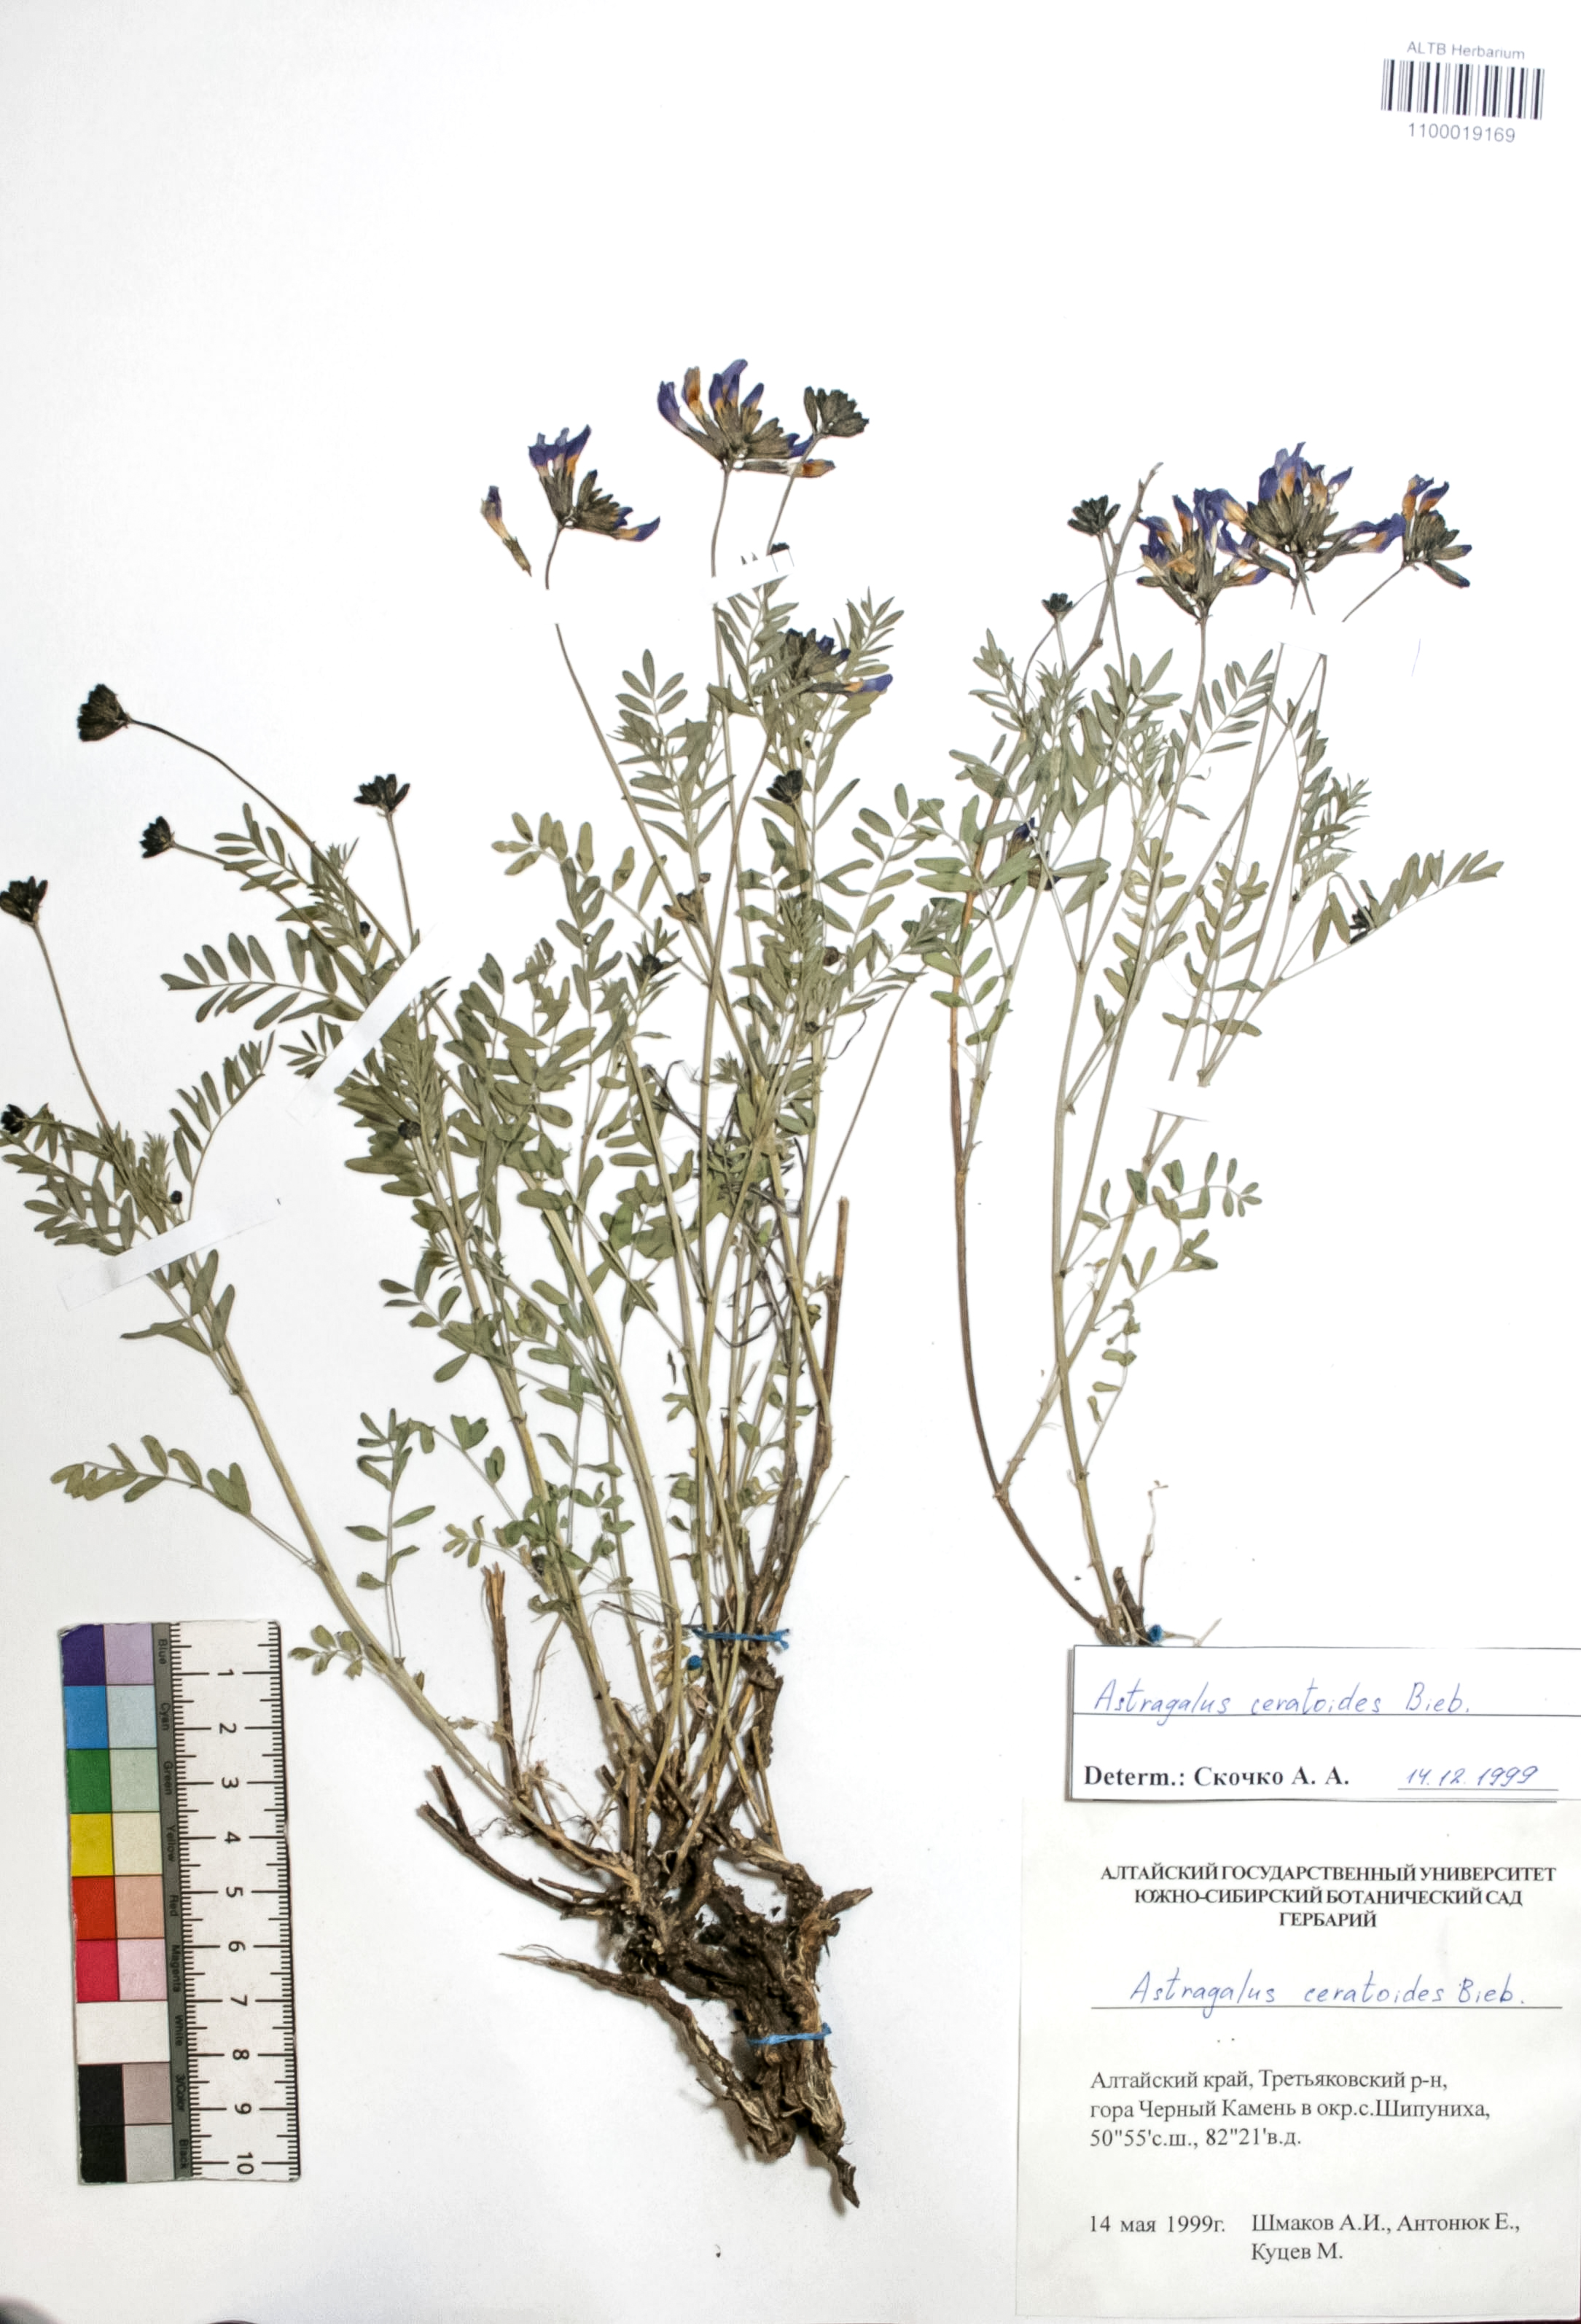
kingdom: Plantae
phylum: Tracheophyta
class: Magnoliopsida
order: Fabales
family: Fabaceae
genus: Astragalus
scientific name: Astragalus ceratoides
